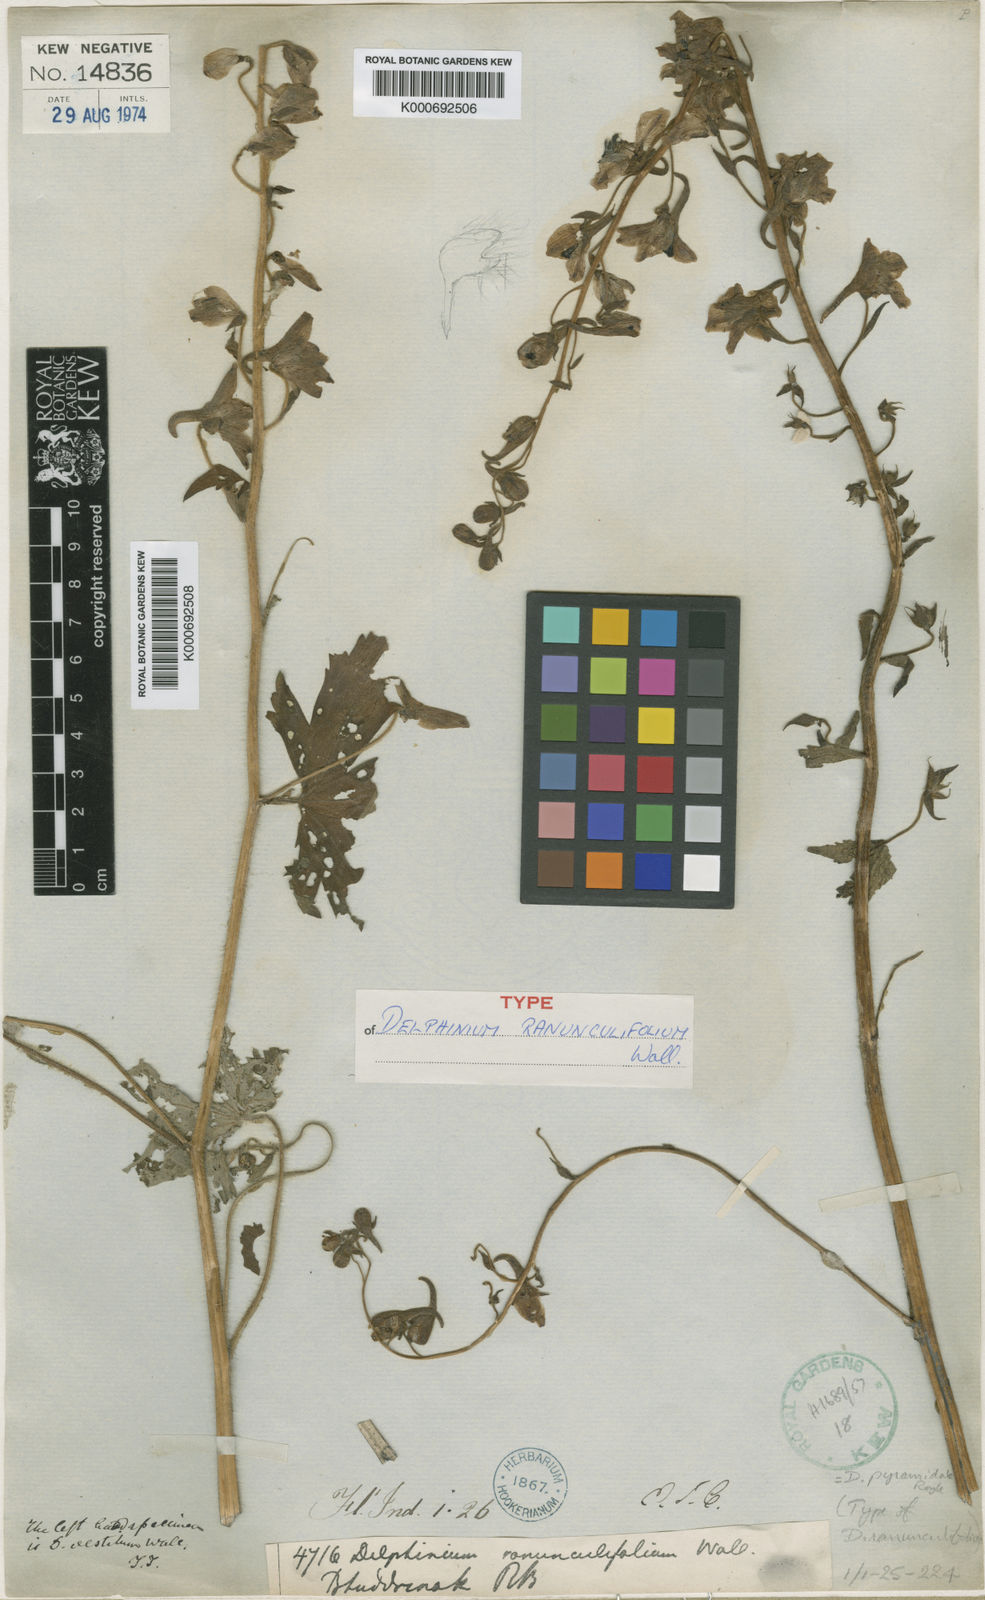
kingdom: Plantae
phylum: Tracheophyta
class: Magnoliopsida
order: Ranunculales
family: Ranunculaceae
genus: Delphinium
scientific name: Delphinium pyramidale
